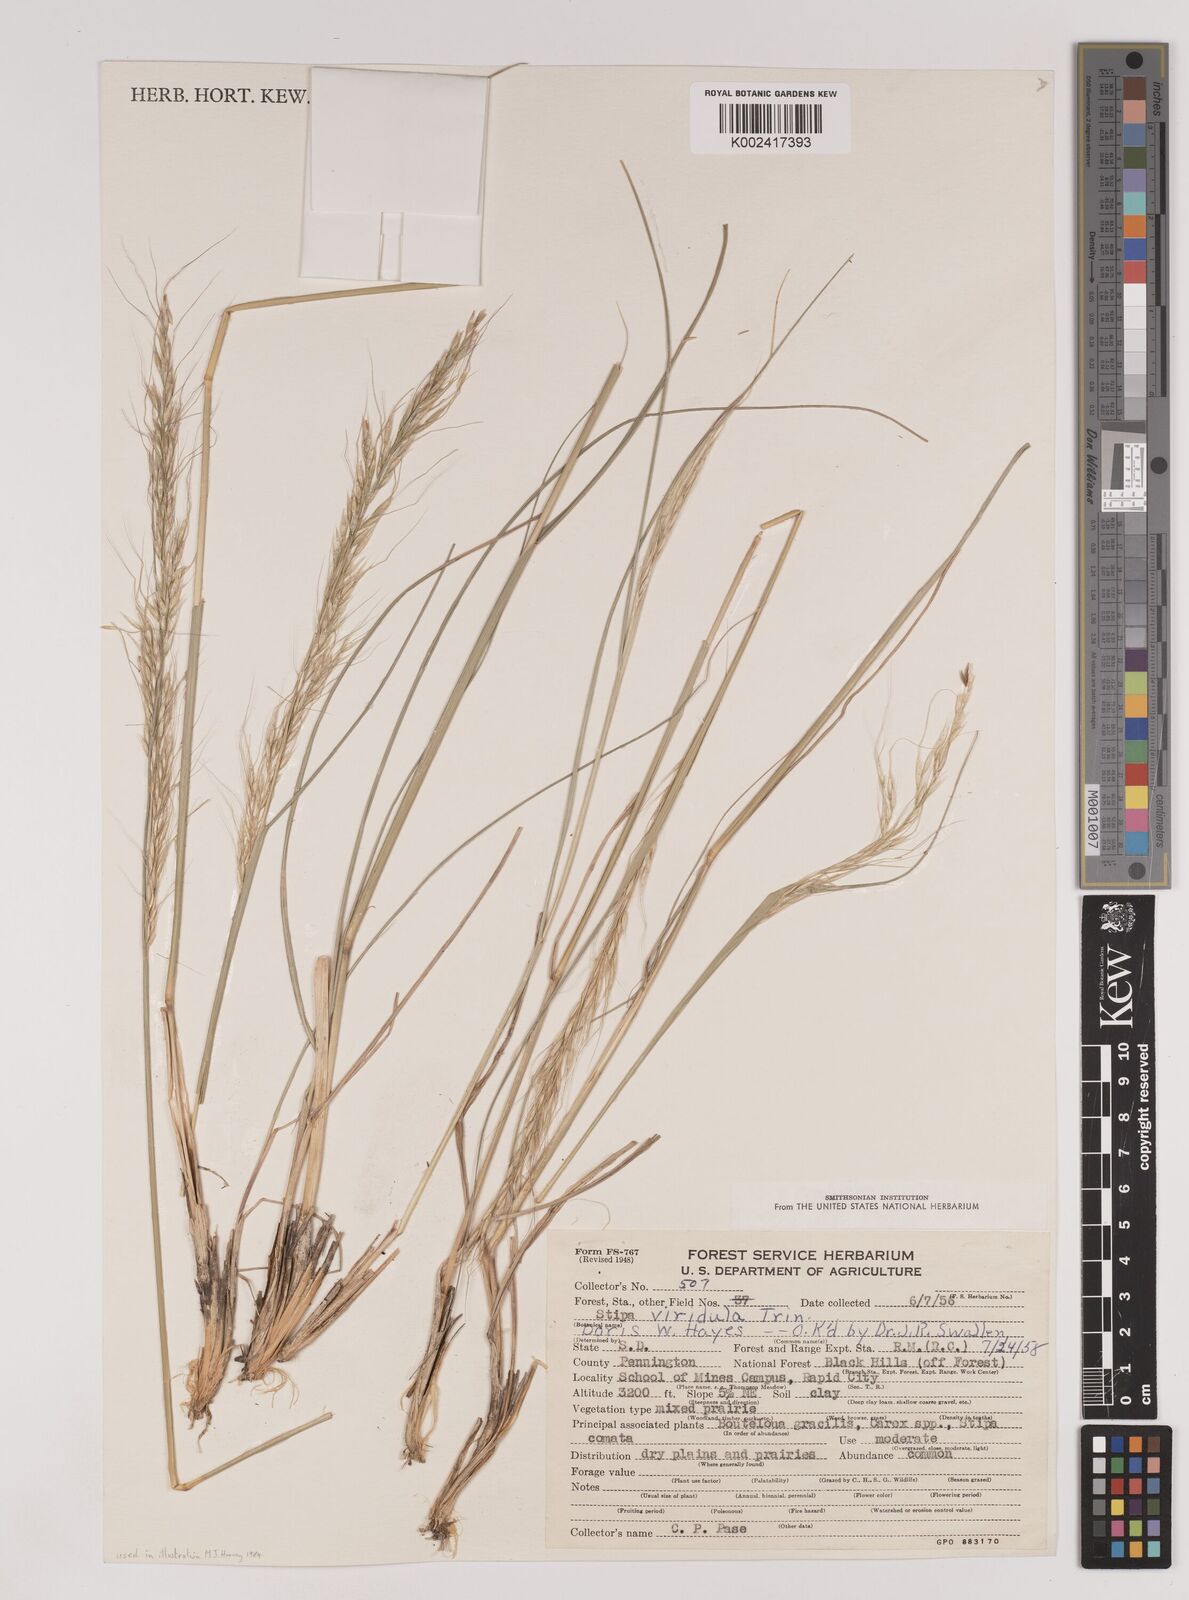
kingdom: Plantae
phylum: Tracheophyta
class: Liliopsida
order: Poales
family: Poaceae
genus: Nassella
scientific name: Nassella viridula
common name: Green needlegrass
